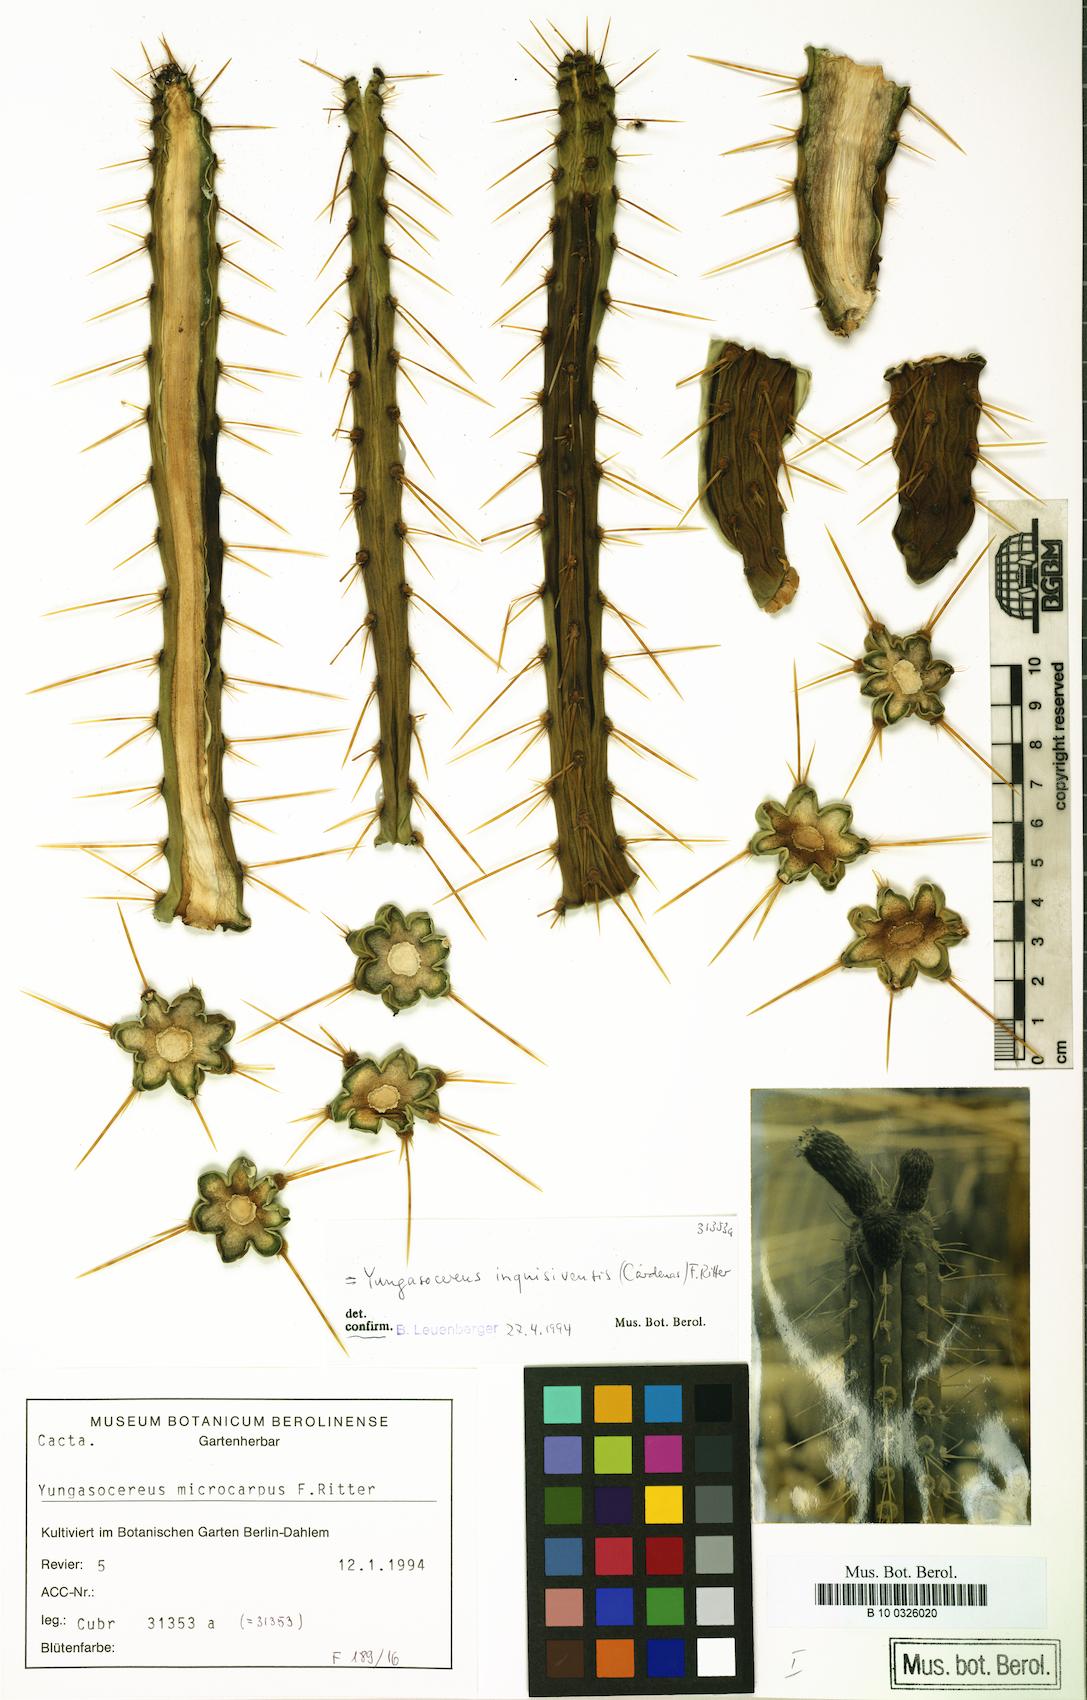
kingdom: Plantae
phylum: Tracheophyta
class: Magnoliopsida
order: Caryophyllales
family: Cactaceae
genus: Yungasocereus
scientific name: Yungasocereus inquisivensis
